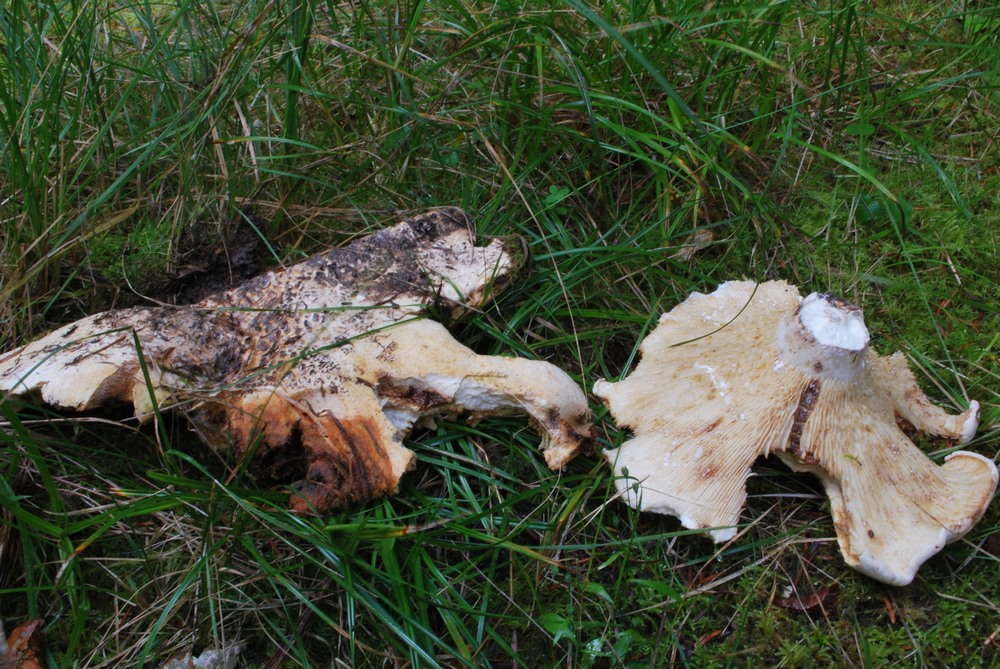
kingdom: Fungi
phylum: Basidiomycota
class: Agaricomycetes
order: Russulales
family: Russulaceae
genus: Lactifluus
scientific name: Lactifluus bertillonii
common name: blødfiltet mælkehat
